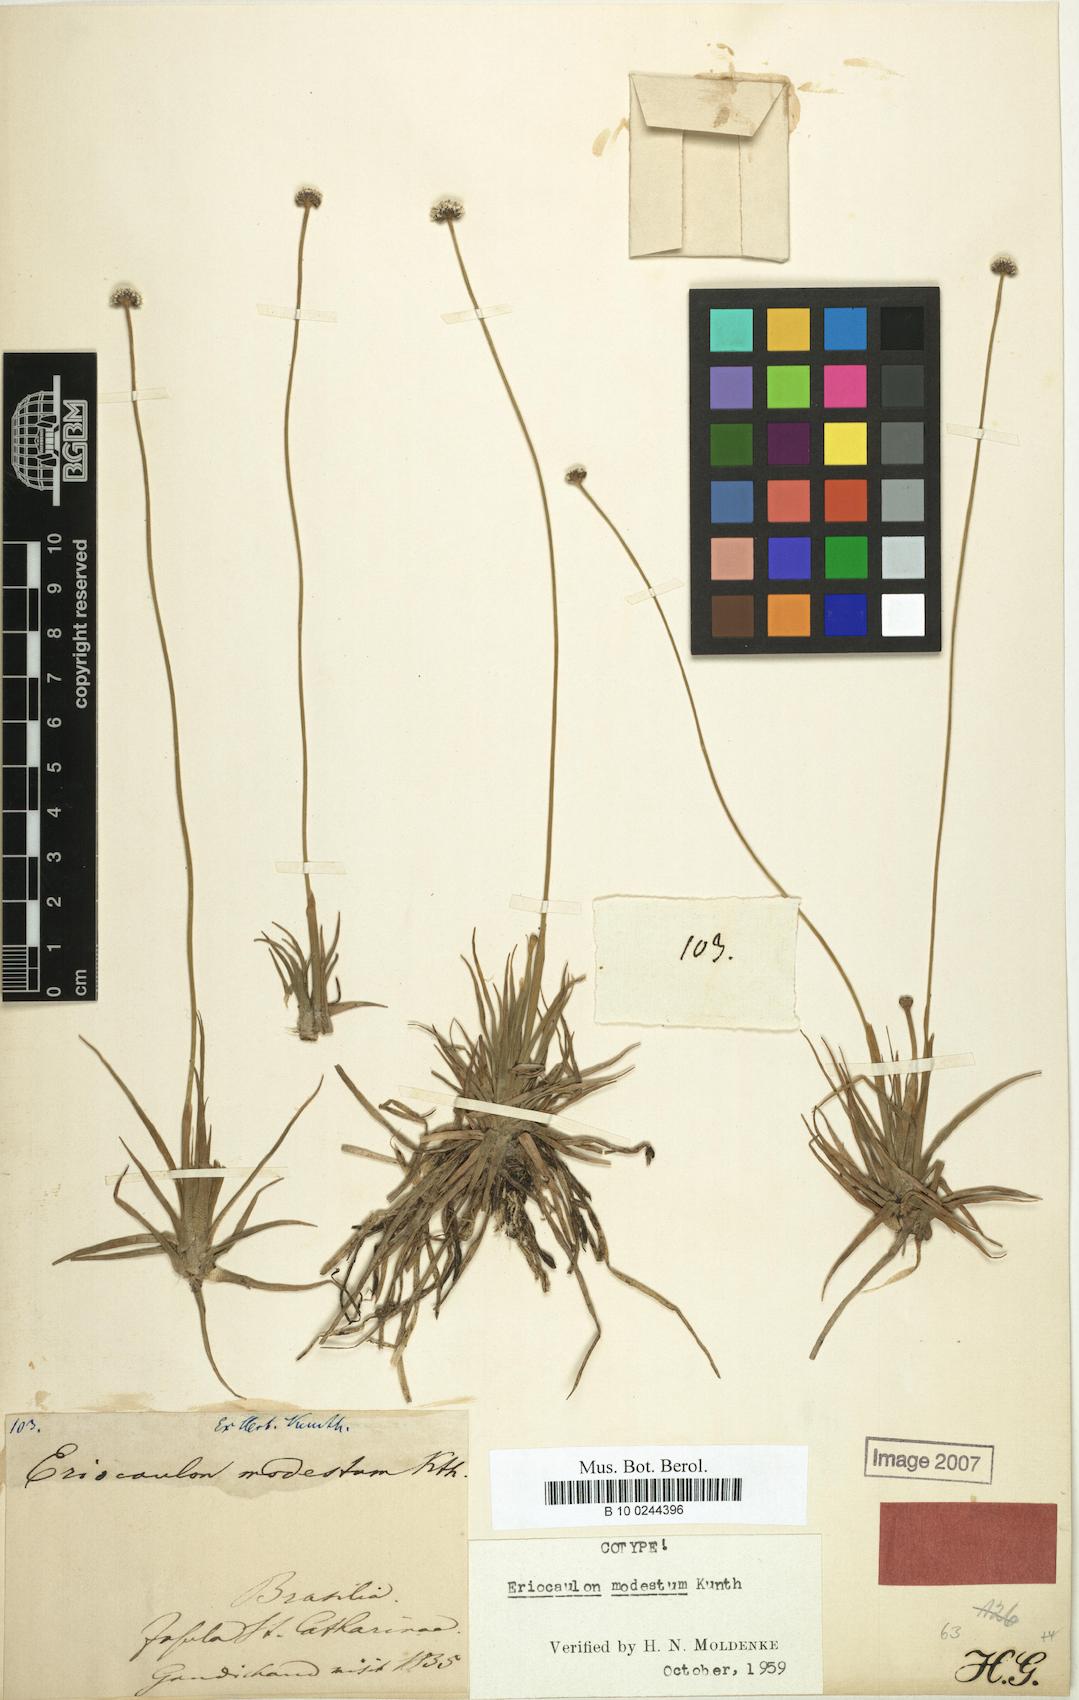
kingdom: Plantae
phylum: Tracheophyta
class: Liliopsida
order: Poales
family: Eriocaulaceae
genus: Eriocaulon
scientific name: Eriocaulon modestum
